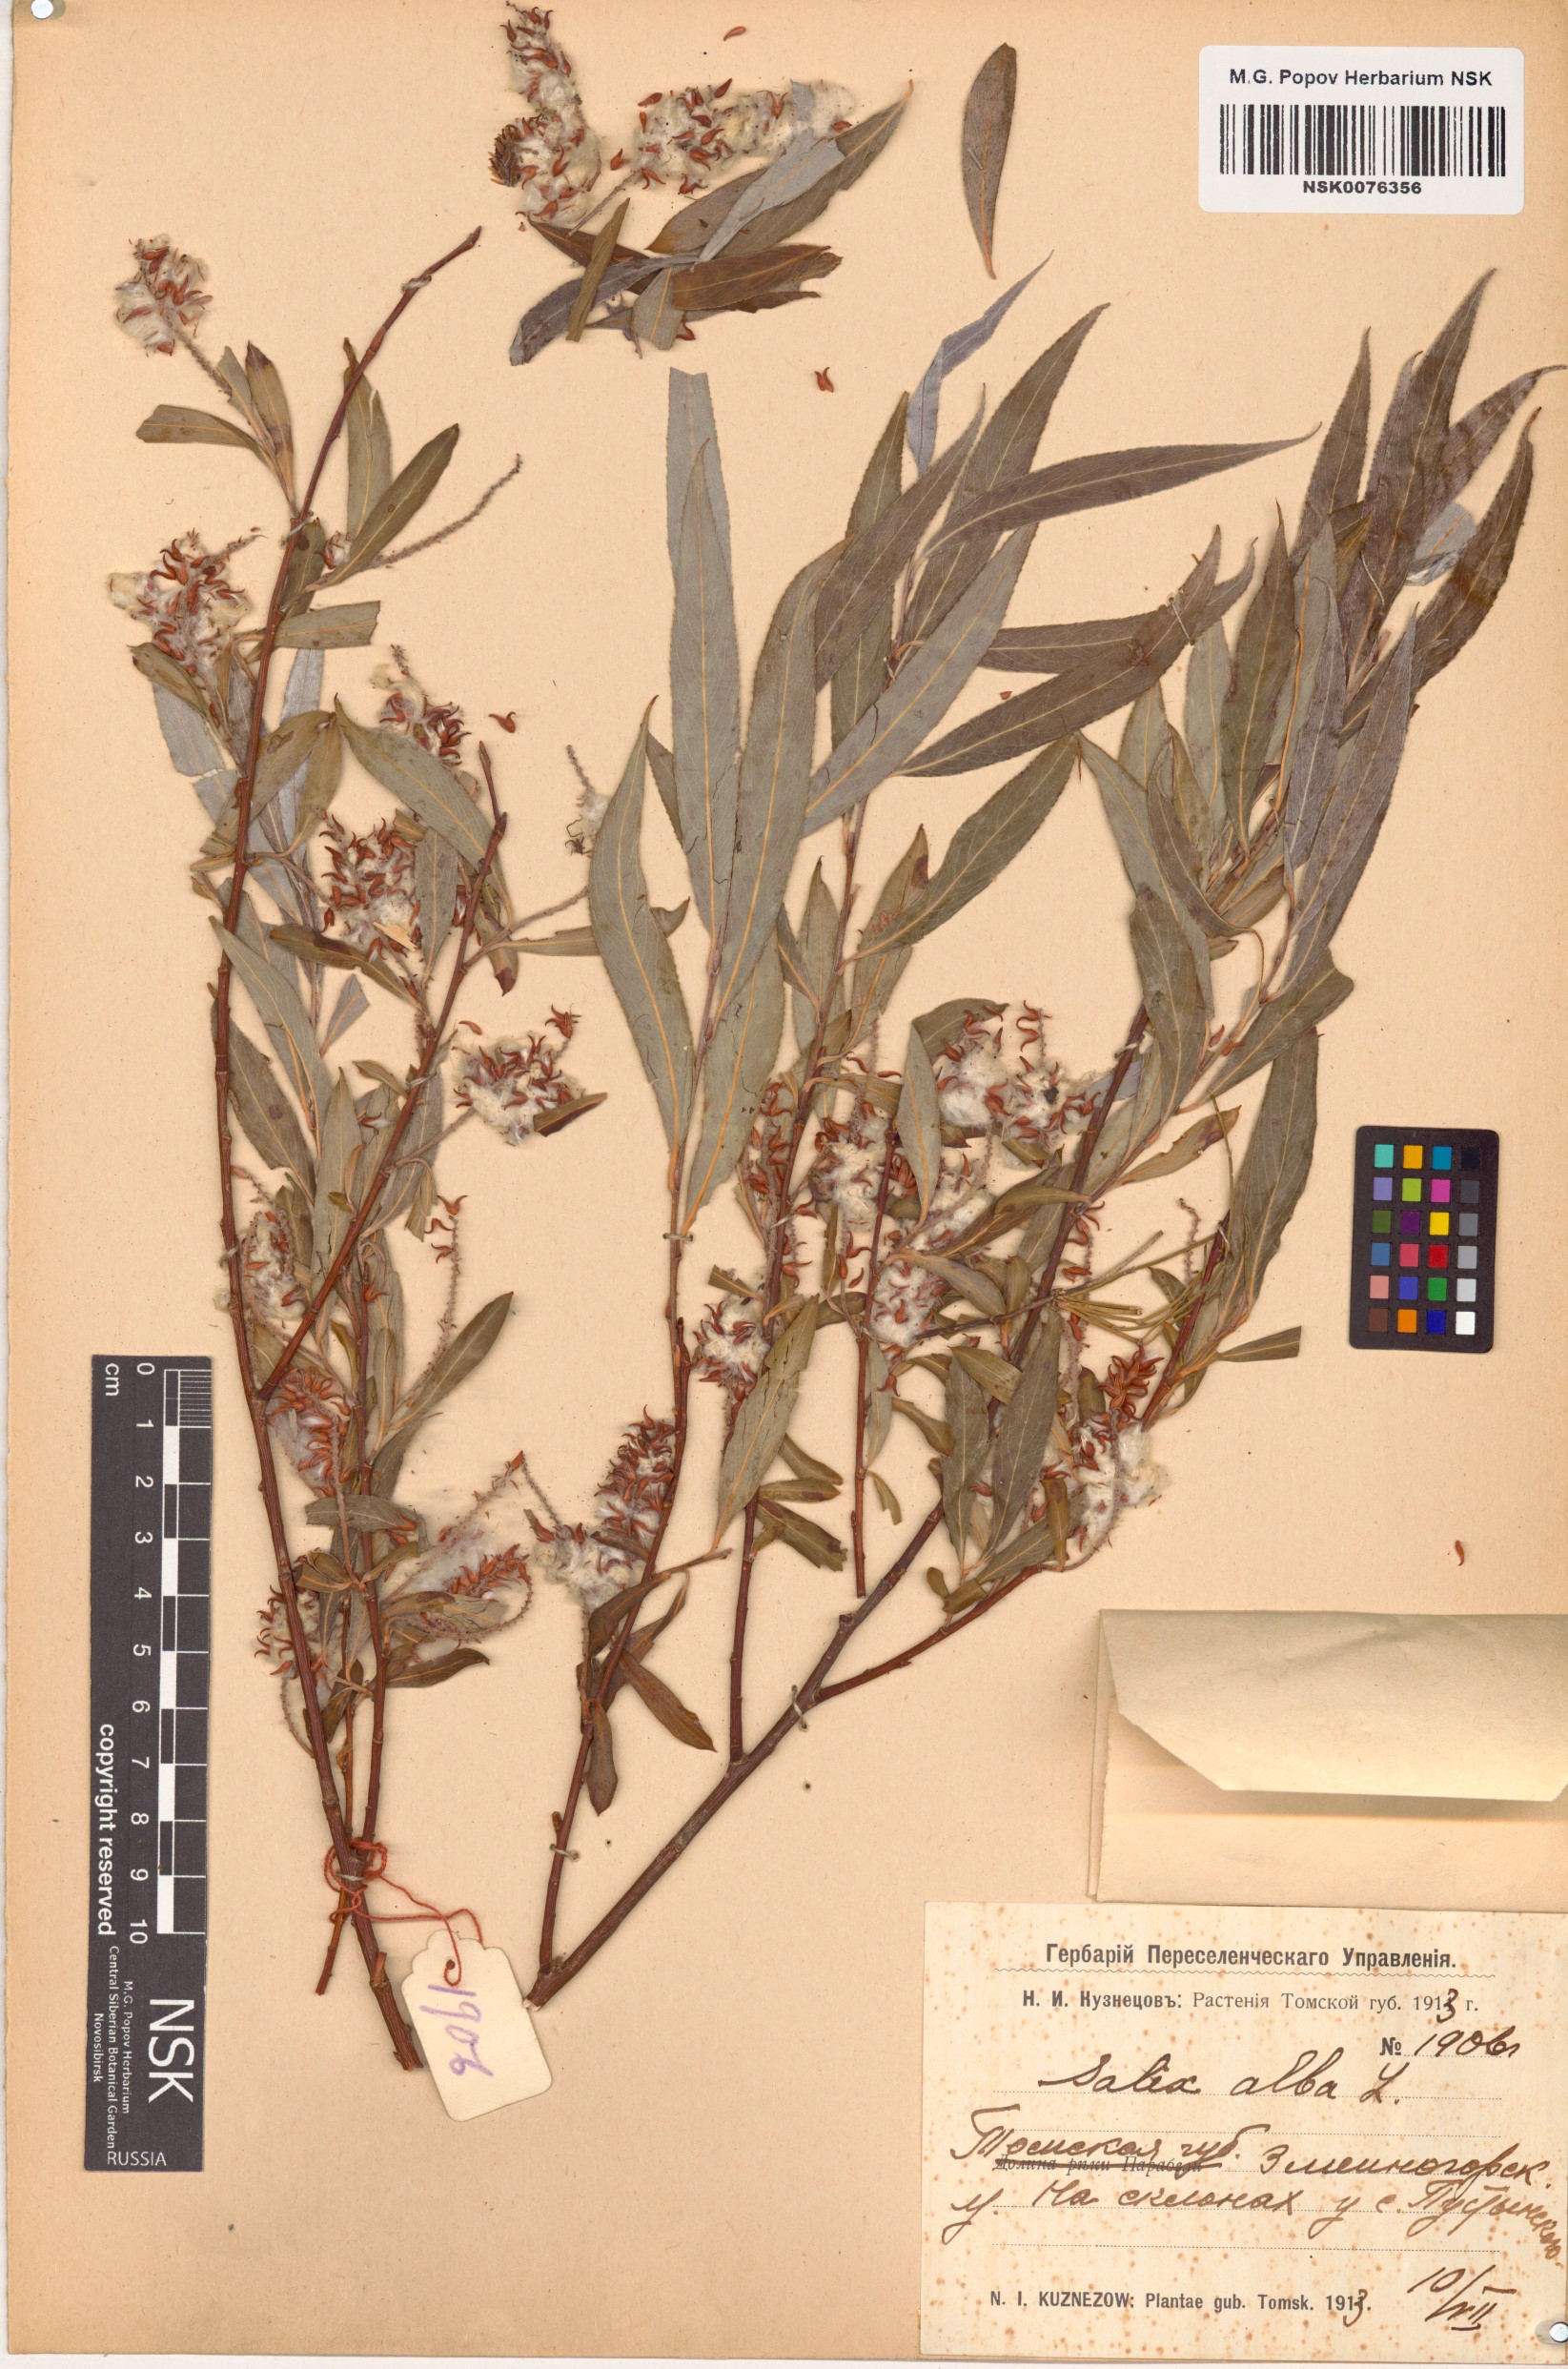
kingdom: Plantae
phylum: Tracheophyta
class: Magnoliopsida
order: Malpighiales
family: Salicaceae
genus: Salix
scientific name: Salix alba
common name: White willow
